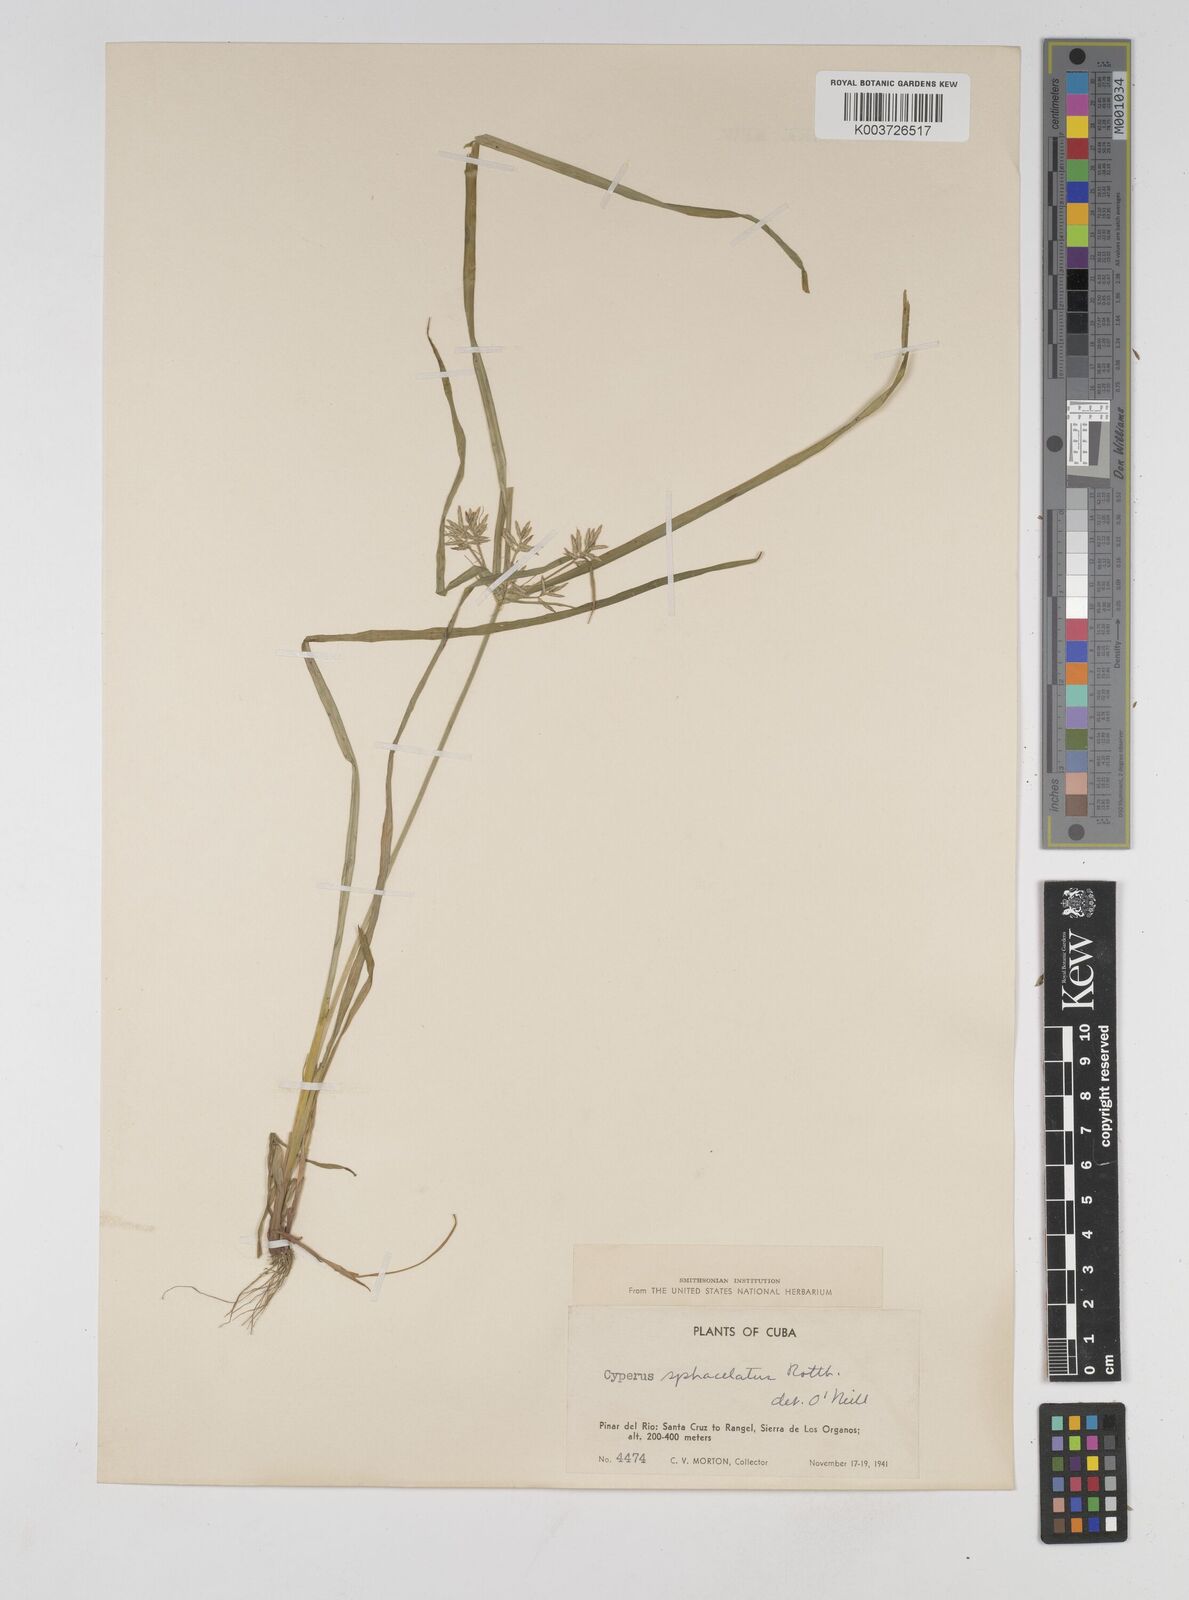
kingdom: Plantae
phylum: Tracheophyta
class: Liliopsida
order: Poales
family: Cyperaceae
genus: Cyperus
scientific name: Cyperus sphacelatus
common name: Roadside flatsedge
